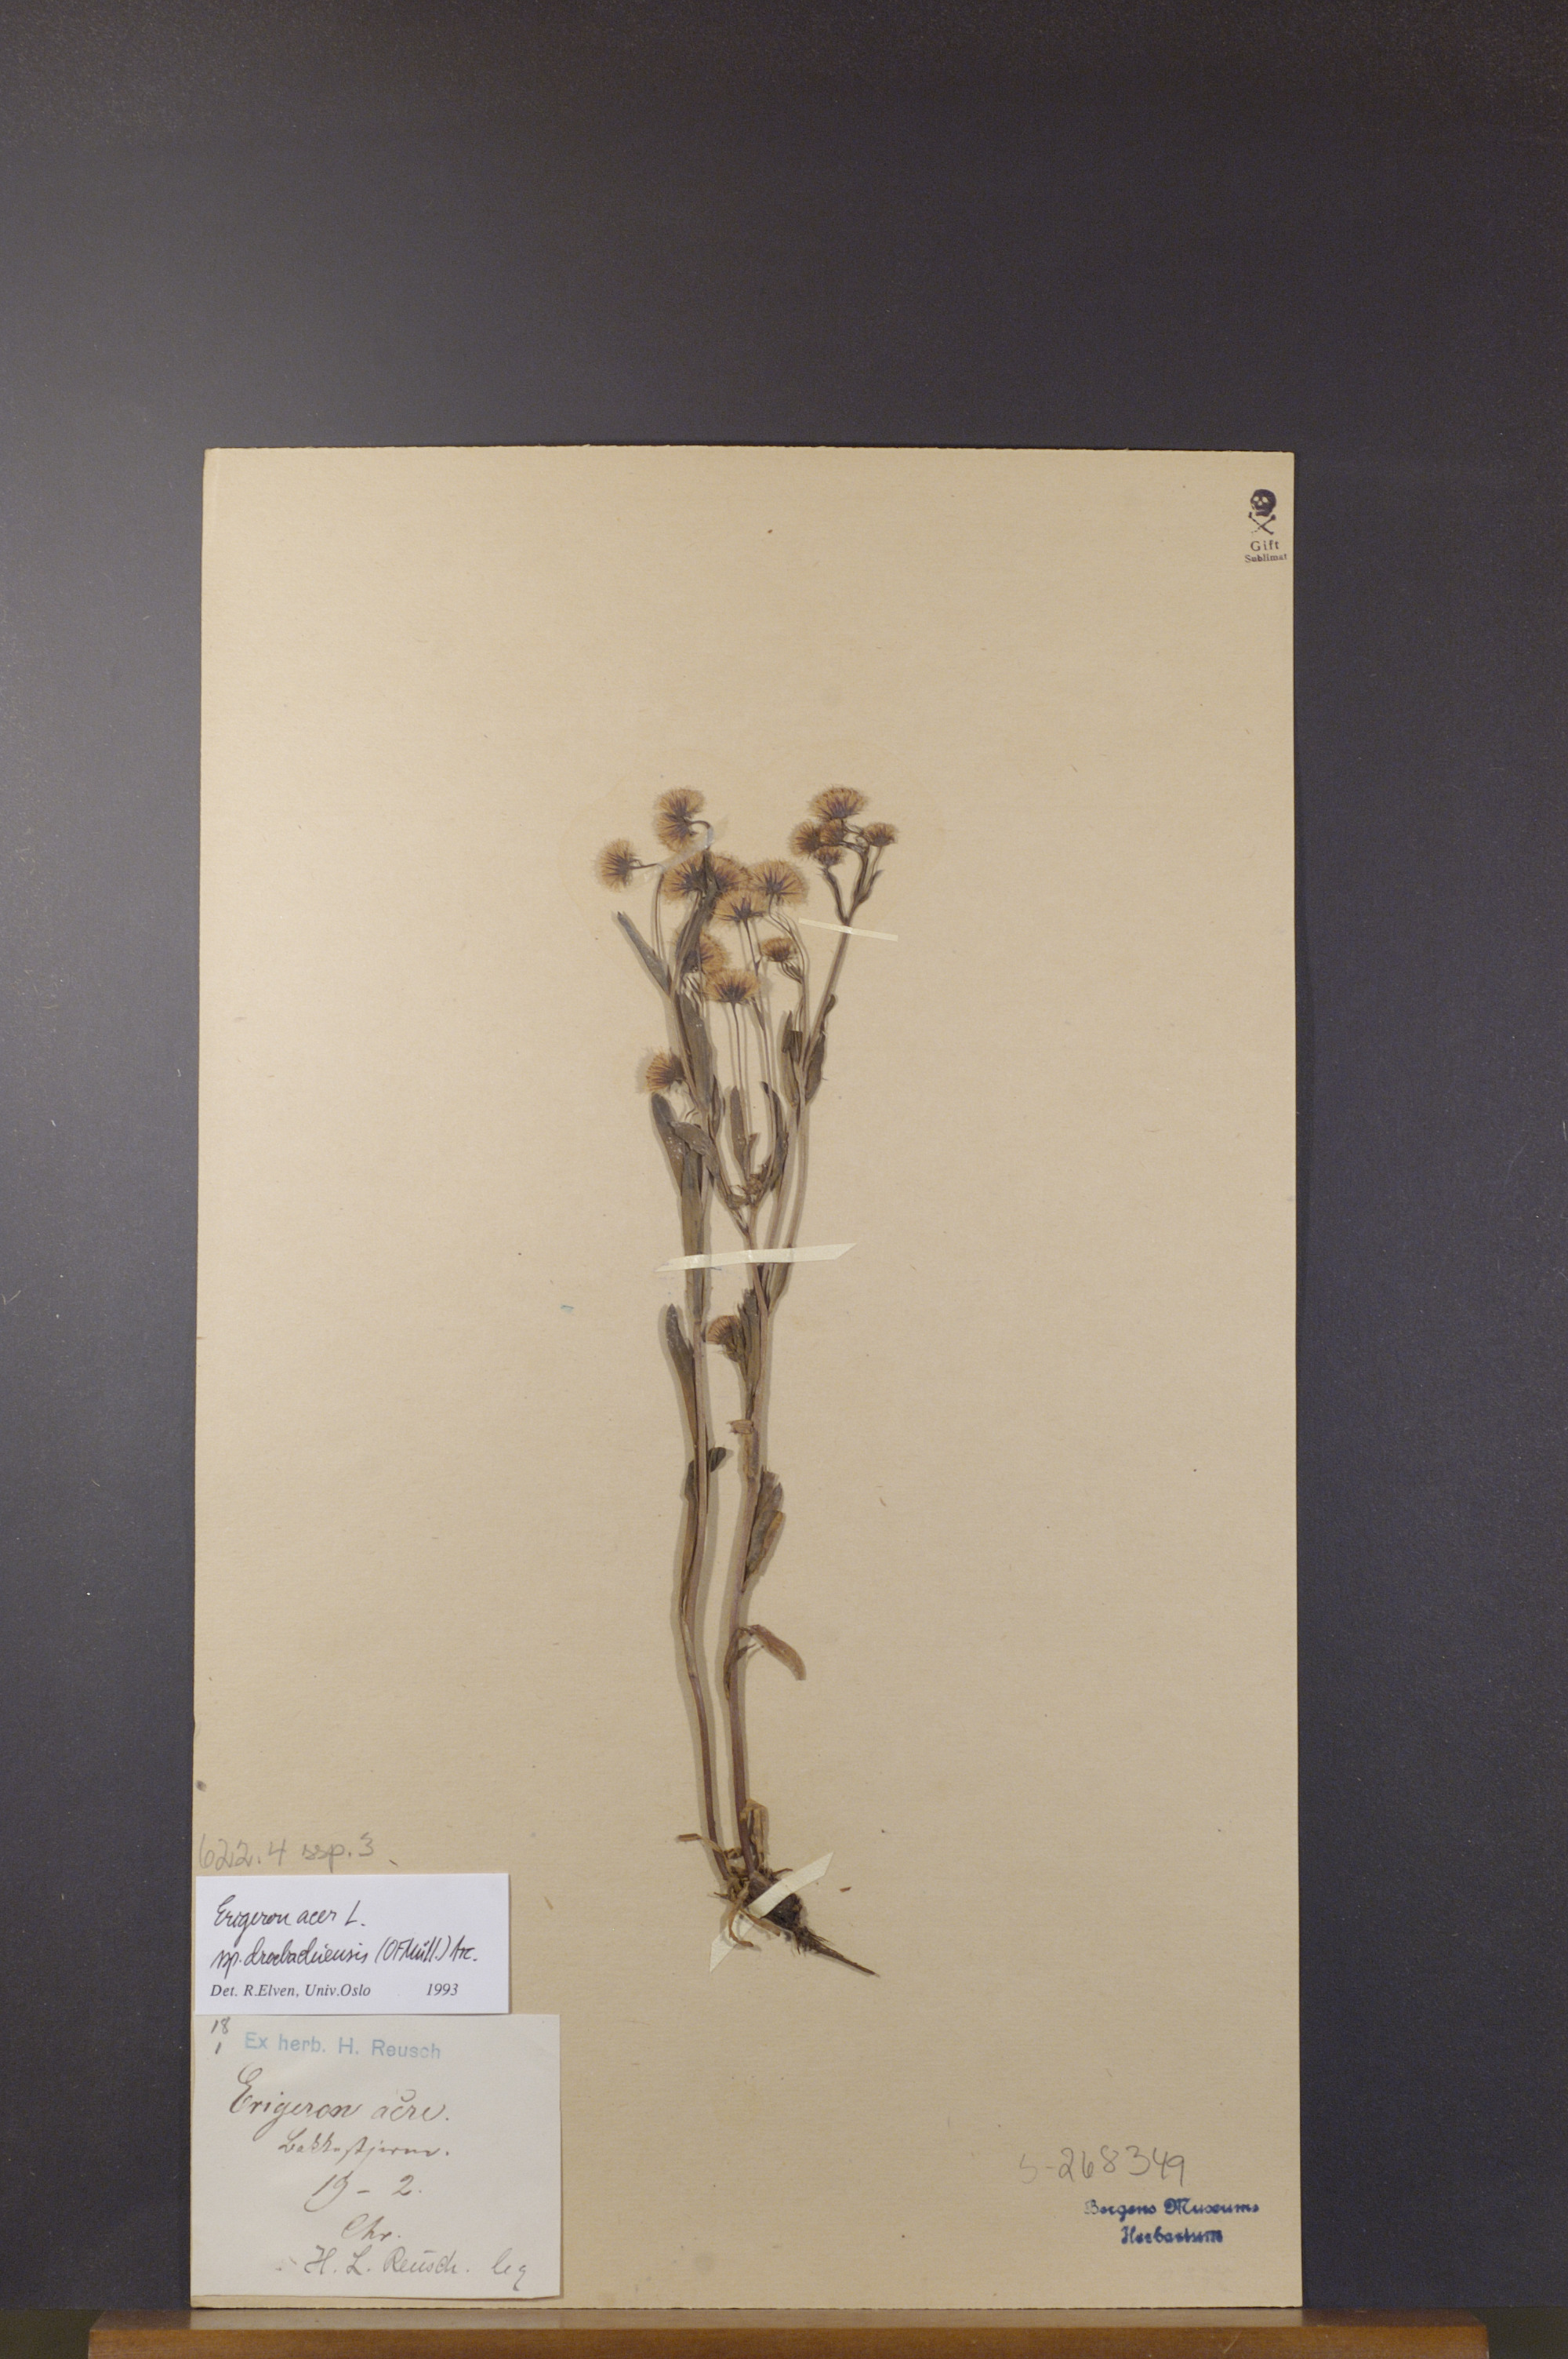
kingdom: Plantae
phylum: Tracheophyta
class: Magnoliopsida
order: Asterales
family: Asteraceae
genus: Erigeron
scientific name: Erigeron droebachiensis
